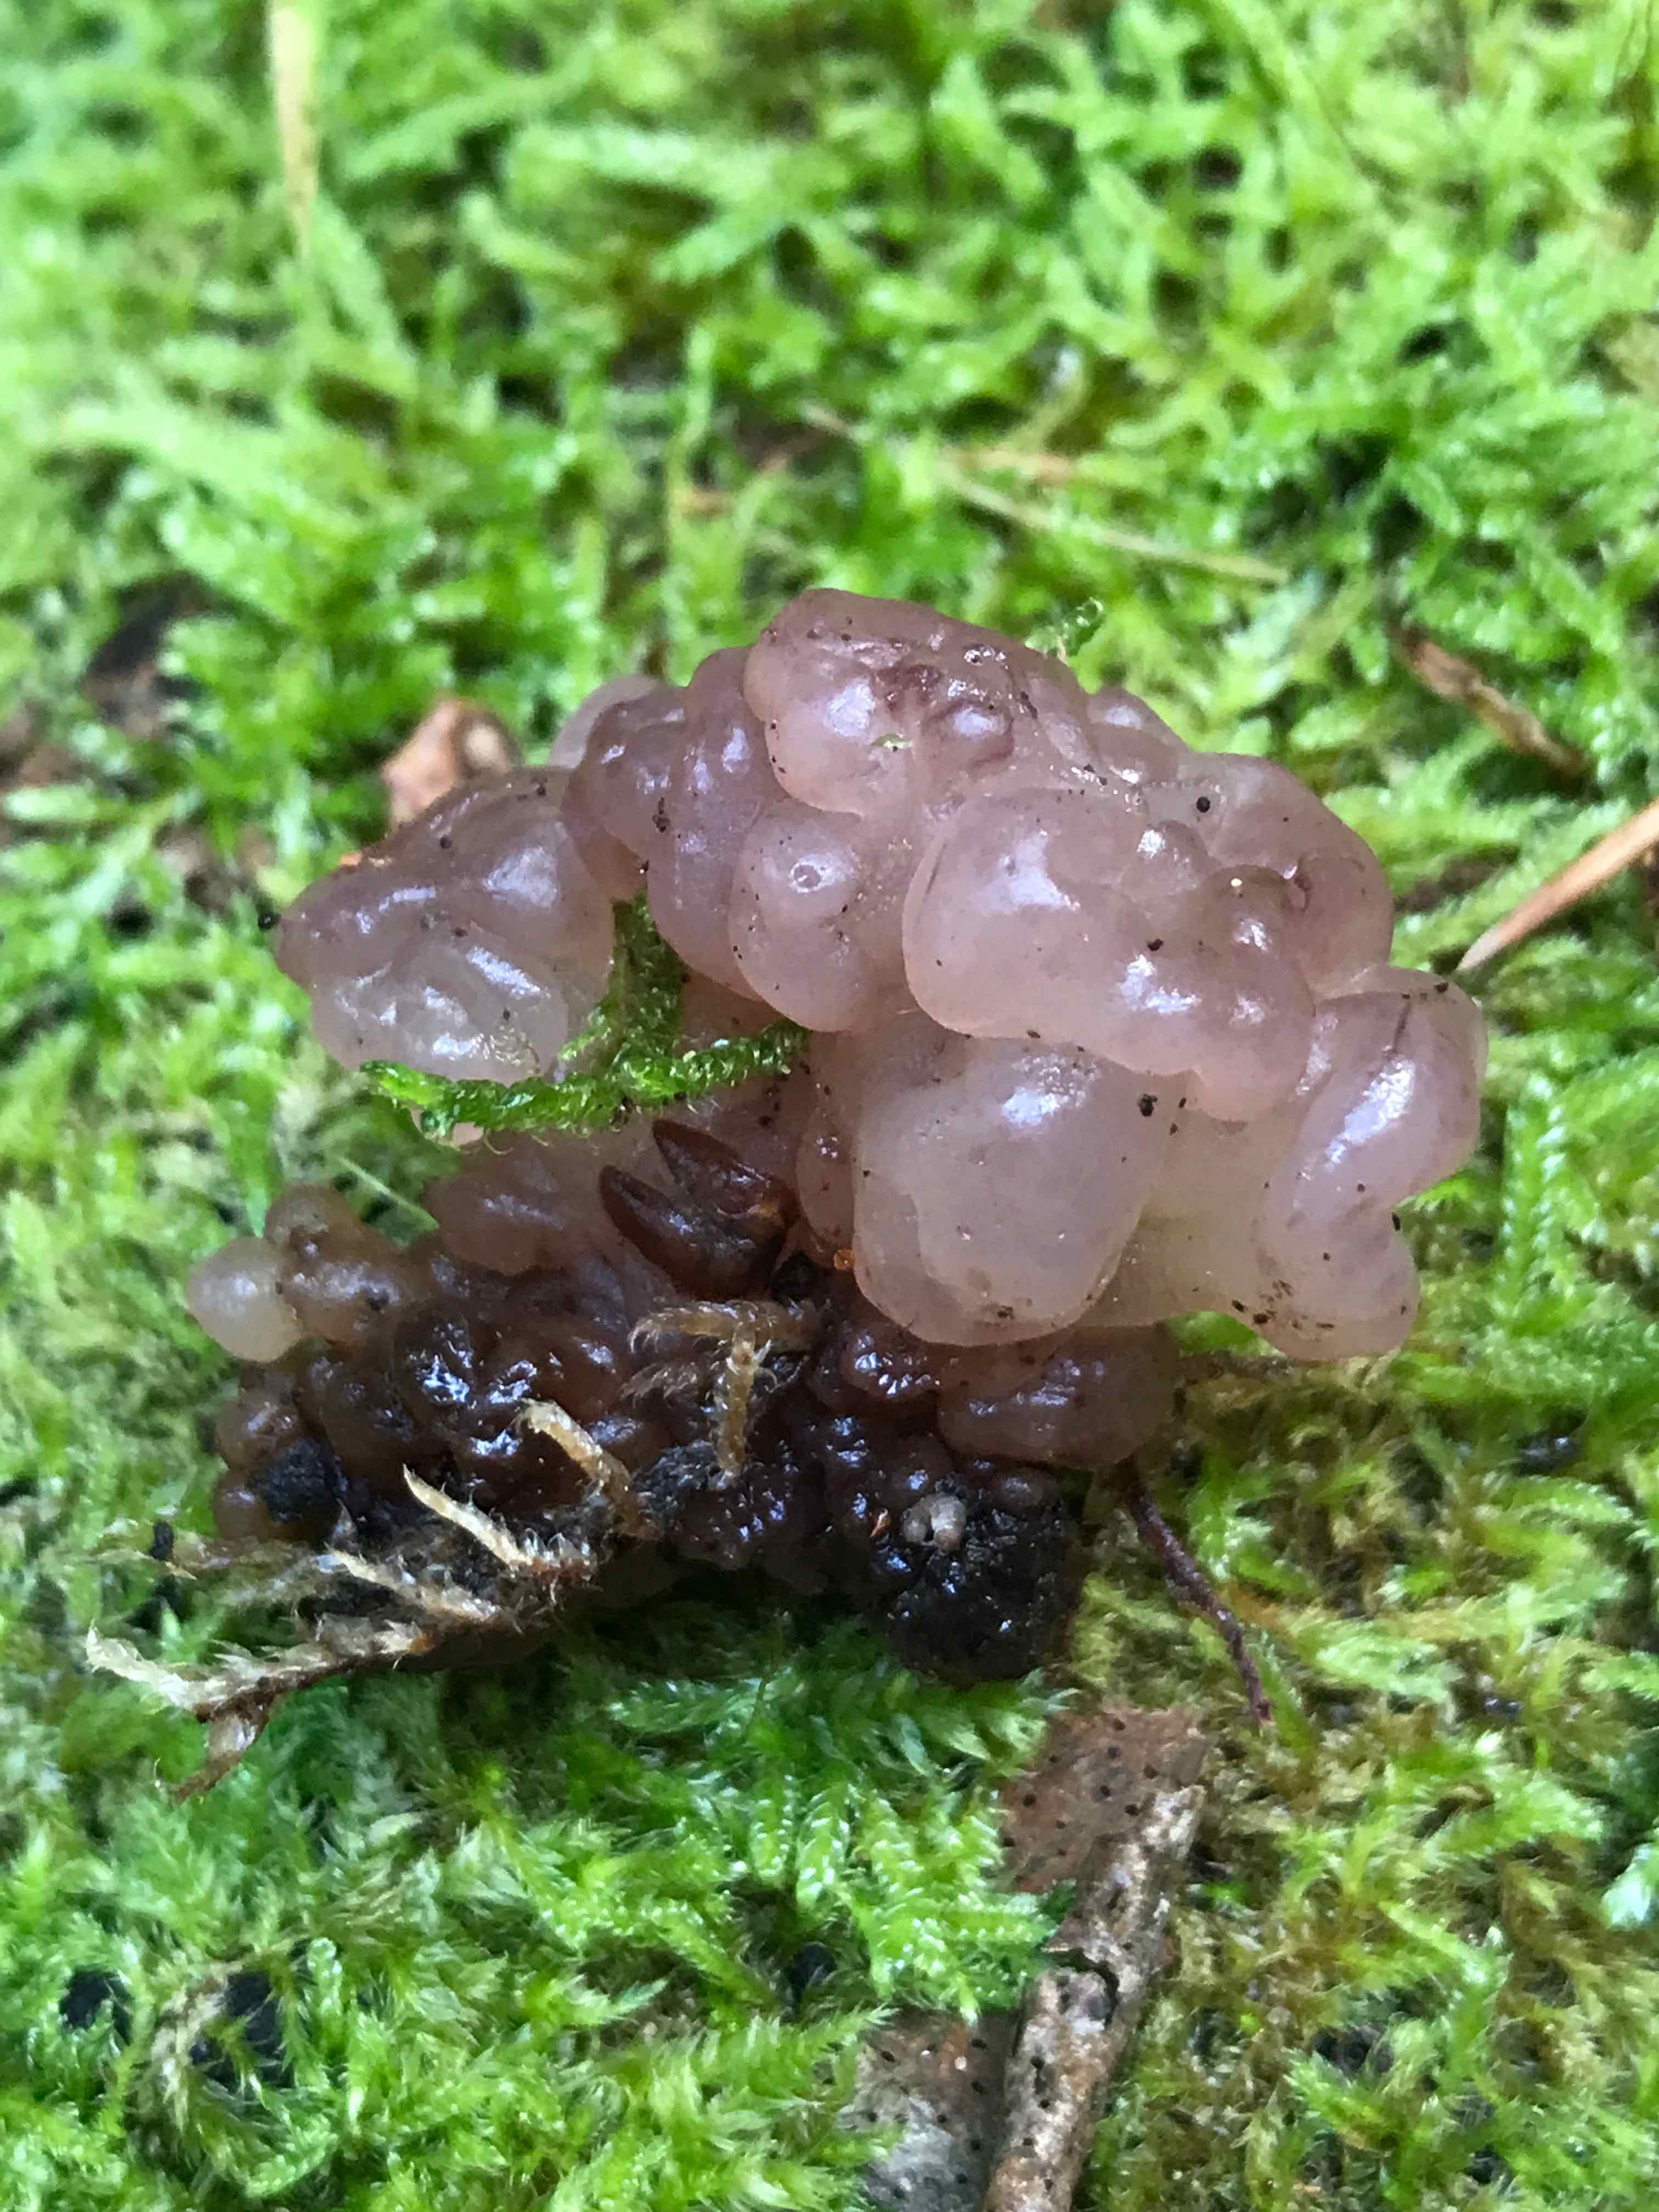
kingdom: Fungi
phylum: Ascomycota
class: Leotiomycetes
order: Helotiales
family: Gelatinodiscaceae
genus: Ascotremella
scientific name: Ascotremella faginea
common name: hjerne-bævreskive
